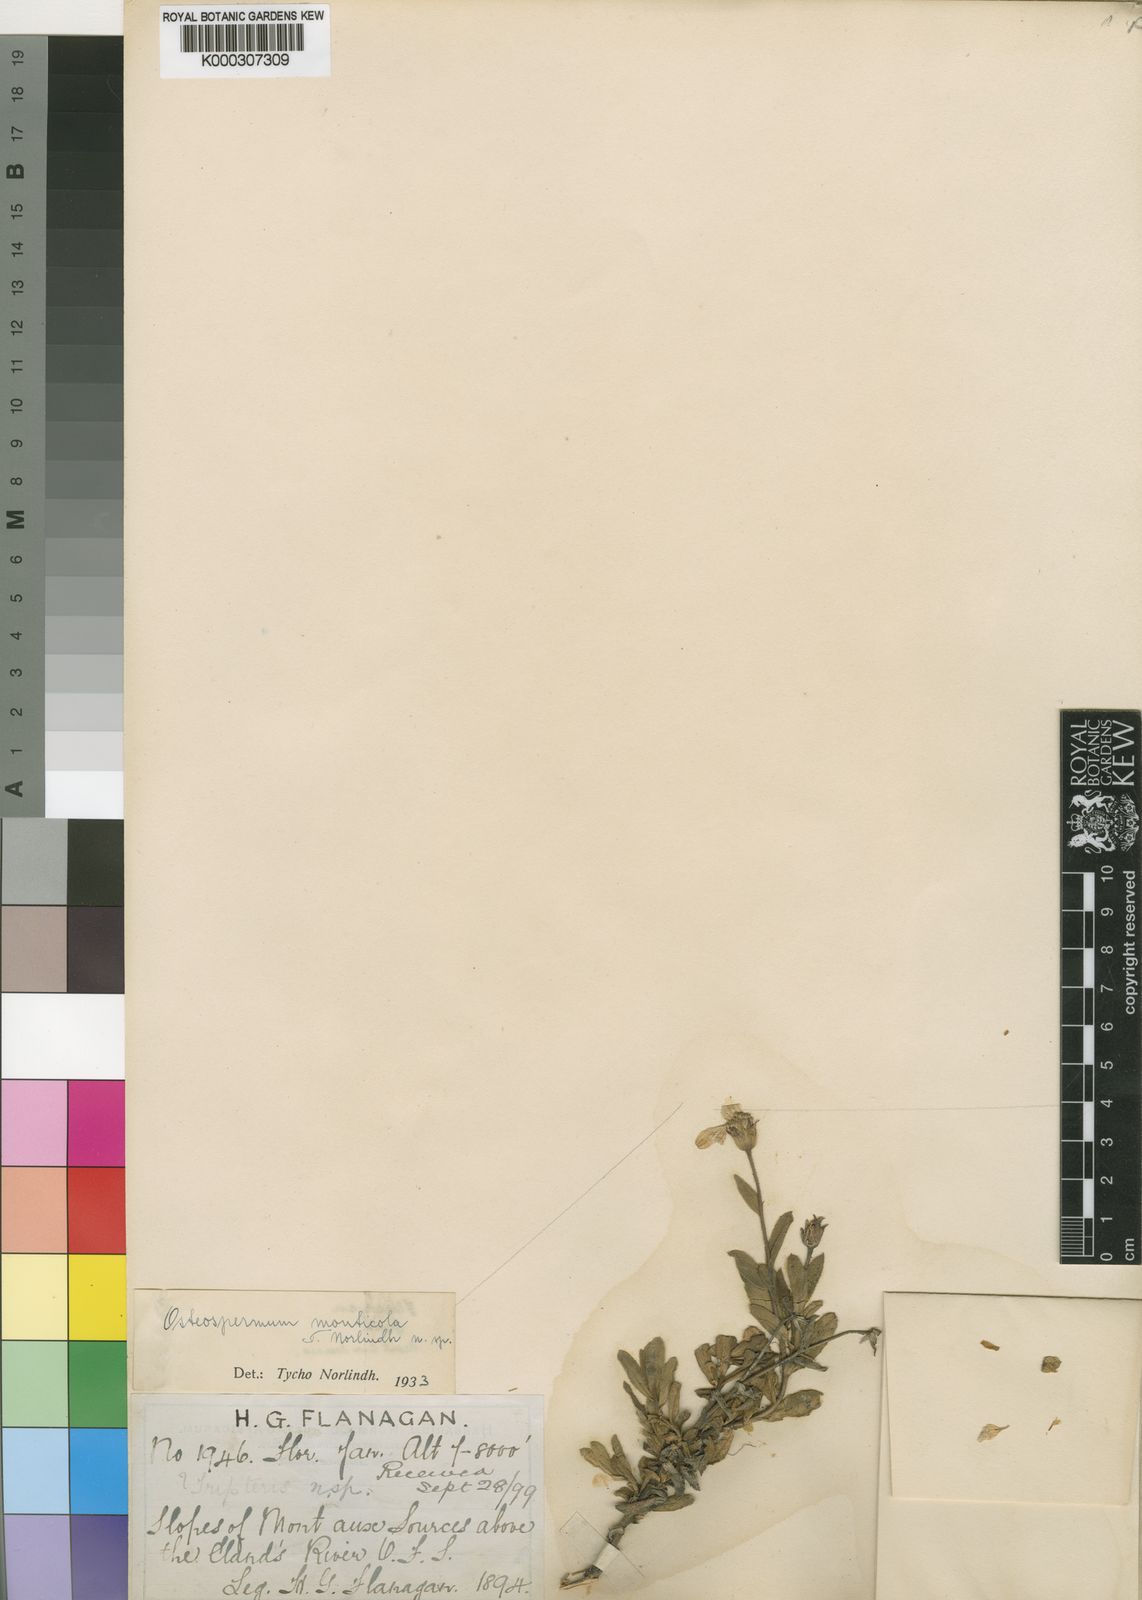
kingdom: Plantae
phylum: Tracheophyta
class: Magnoliopsida
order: Asterales
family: Asteraceae
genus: Osteospermum
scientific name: Osteospermum
